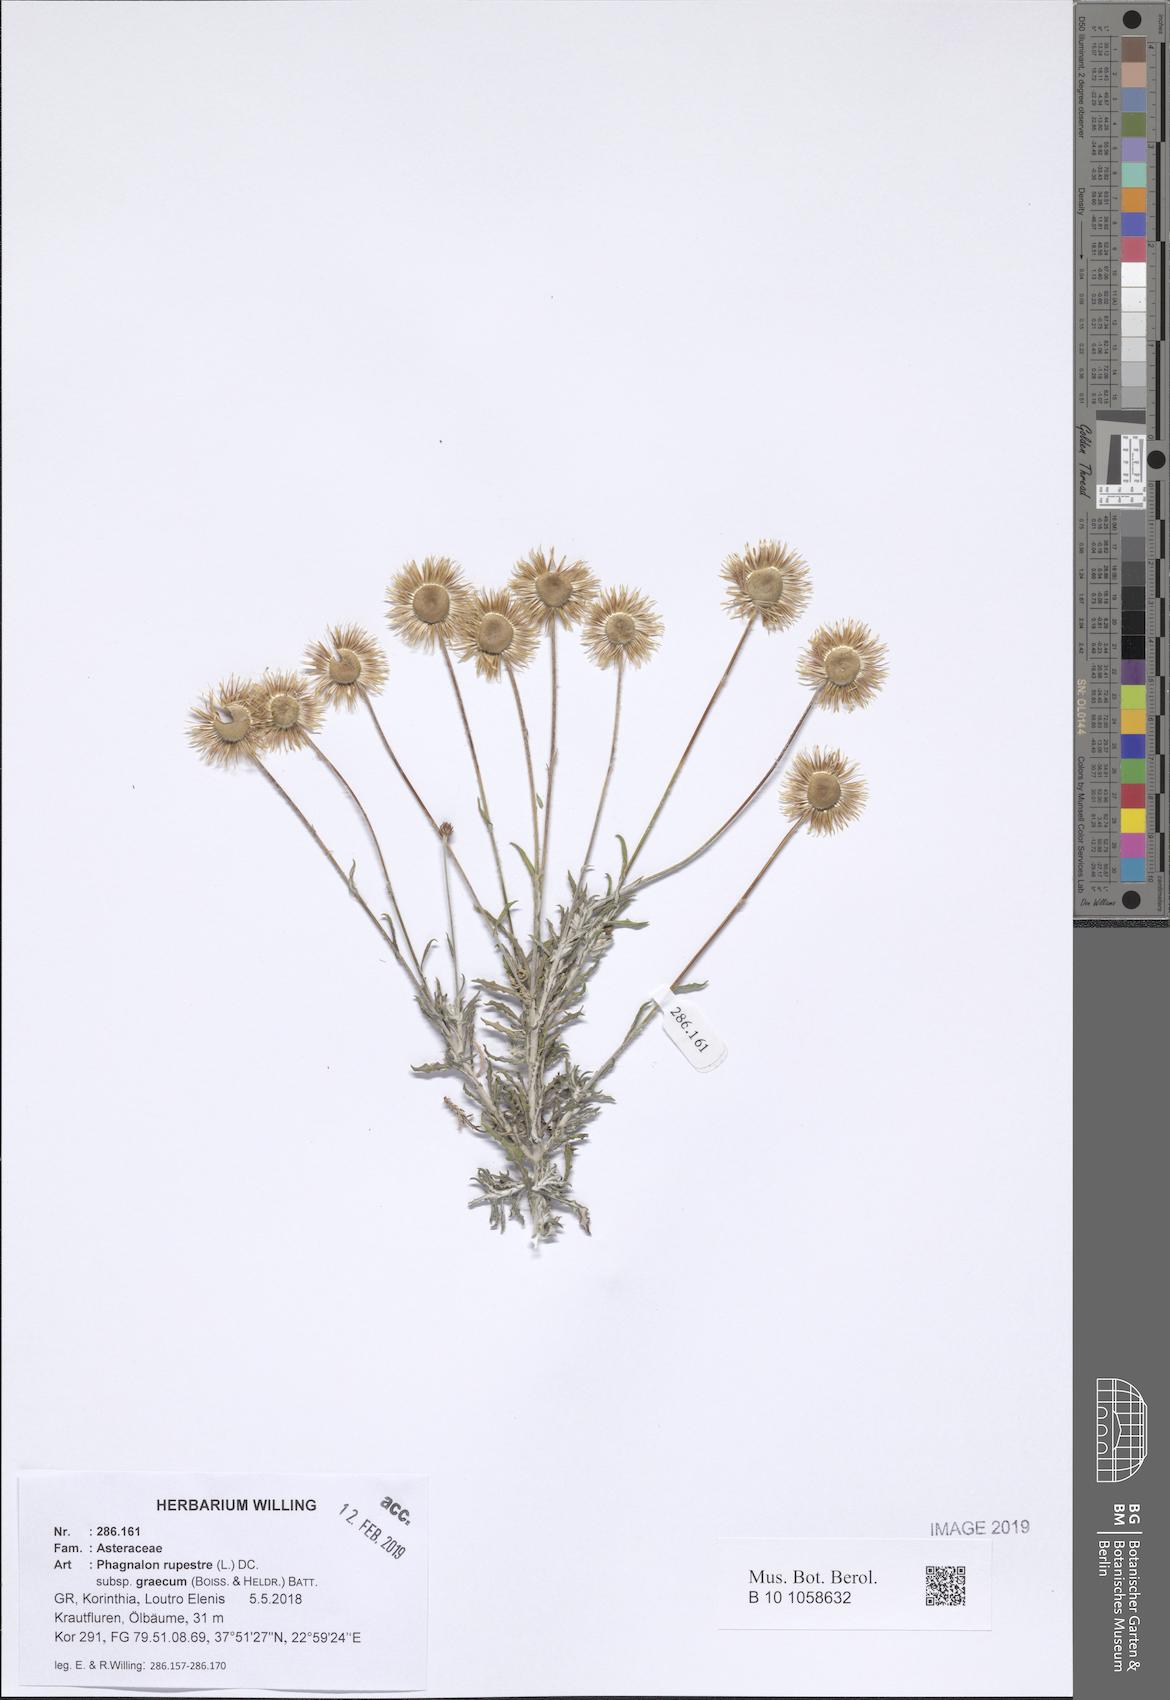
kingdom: Plantae
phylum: Tracheophyta
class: Magnoliopsida
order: Asterales
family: Asteraceae
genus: Phagnalon
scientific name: Phagnalon graecum
